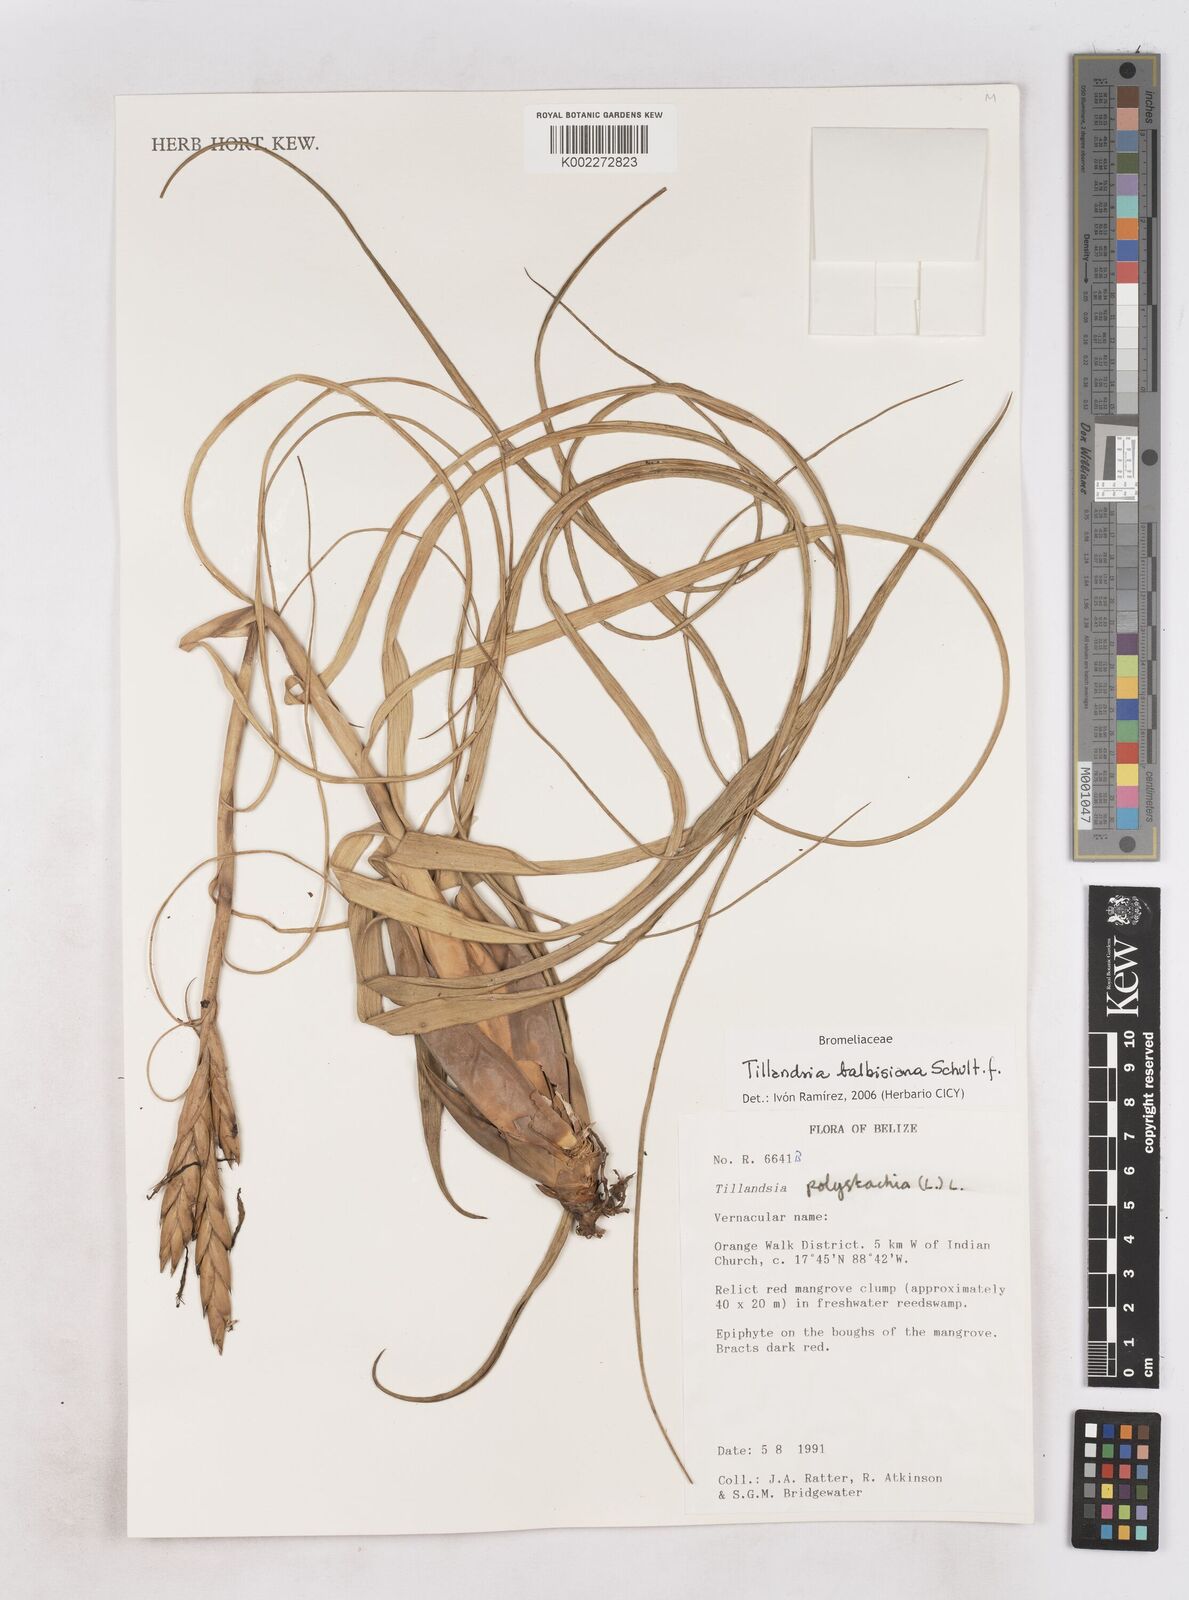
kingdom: Plantae
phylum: Tracheophyta
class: Liliopsida
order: Poales
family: Bromeliaceae
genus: Tillandsia
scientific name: Tillandsia balbisiana
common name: Northern needleleaf
